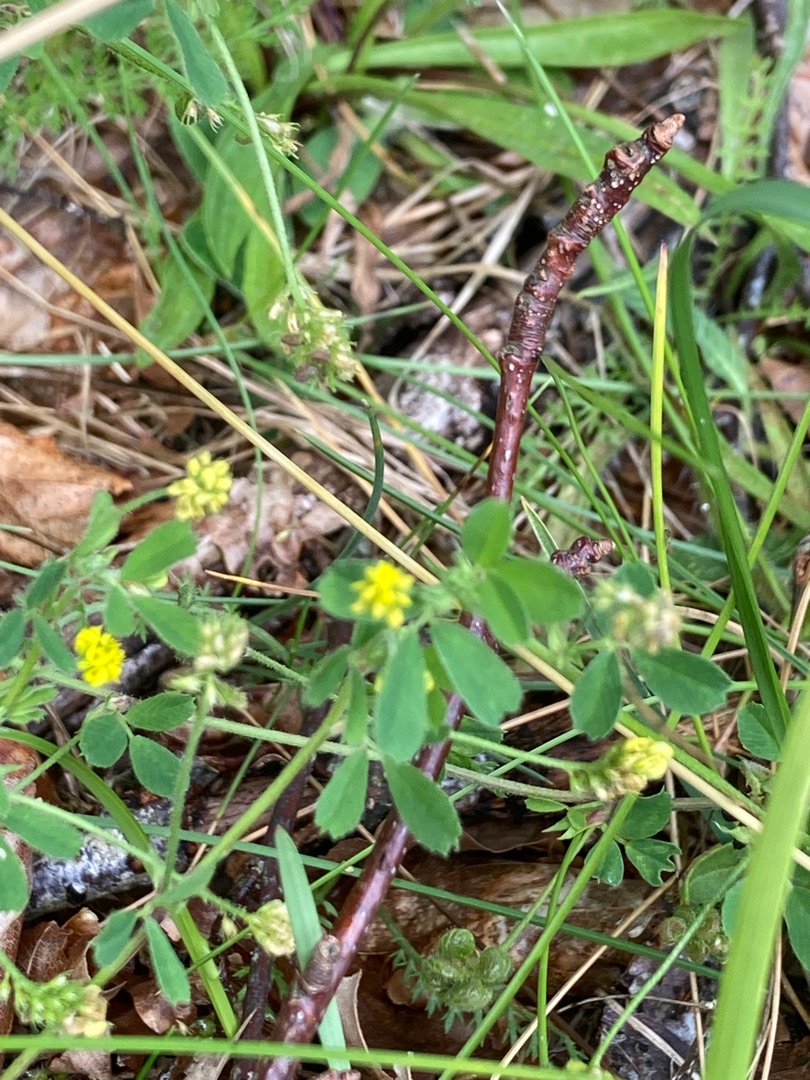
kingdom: Plantae
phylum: Tracheophyta
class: Magnoliopsida
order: Fabales
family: Fabaceae
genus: Medicago
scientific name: Medicago lupulina
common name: Humle-sneglebælg
